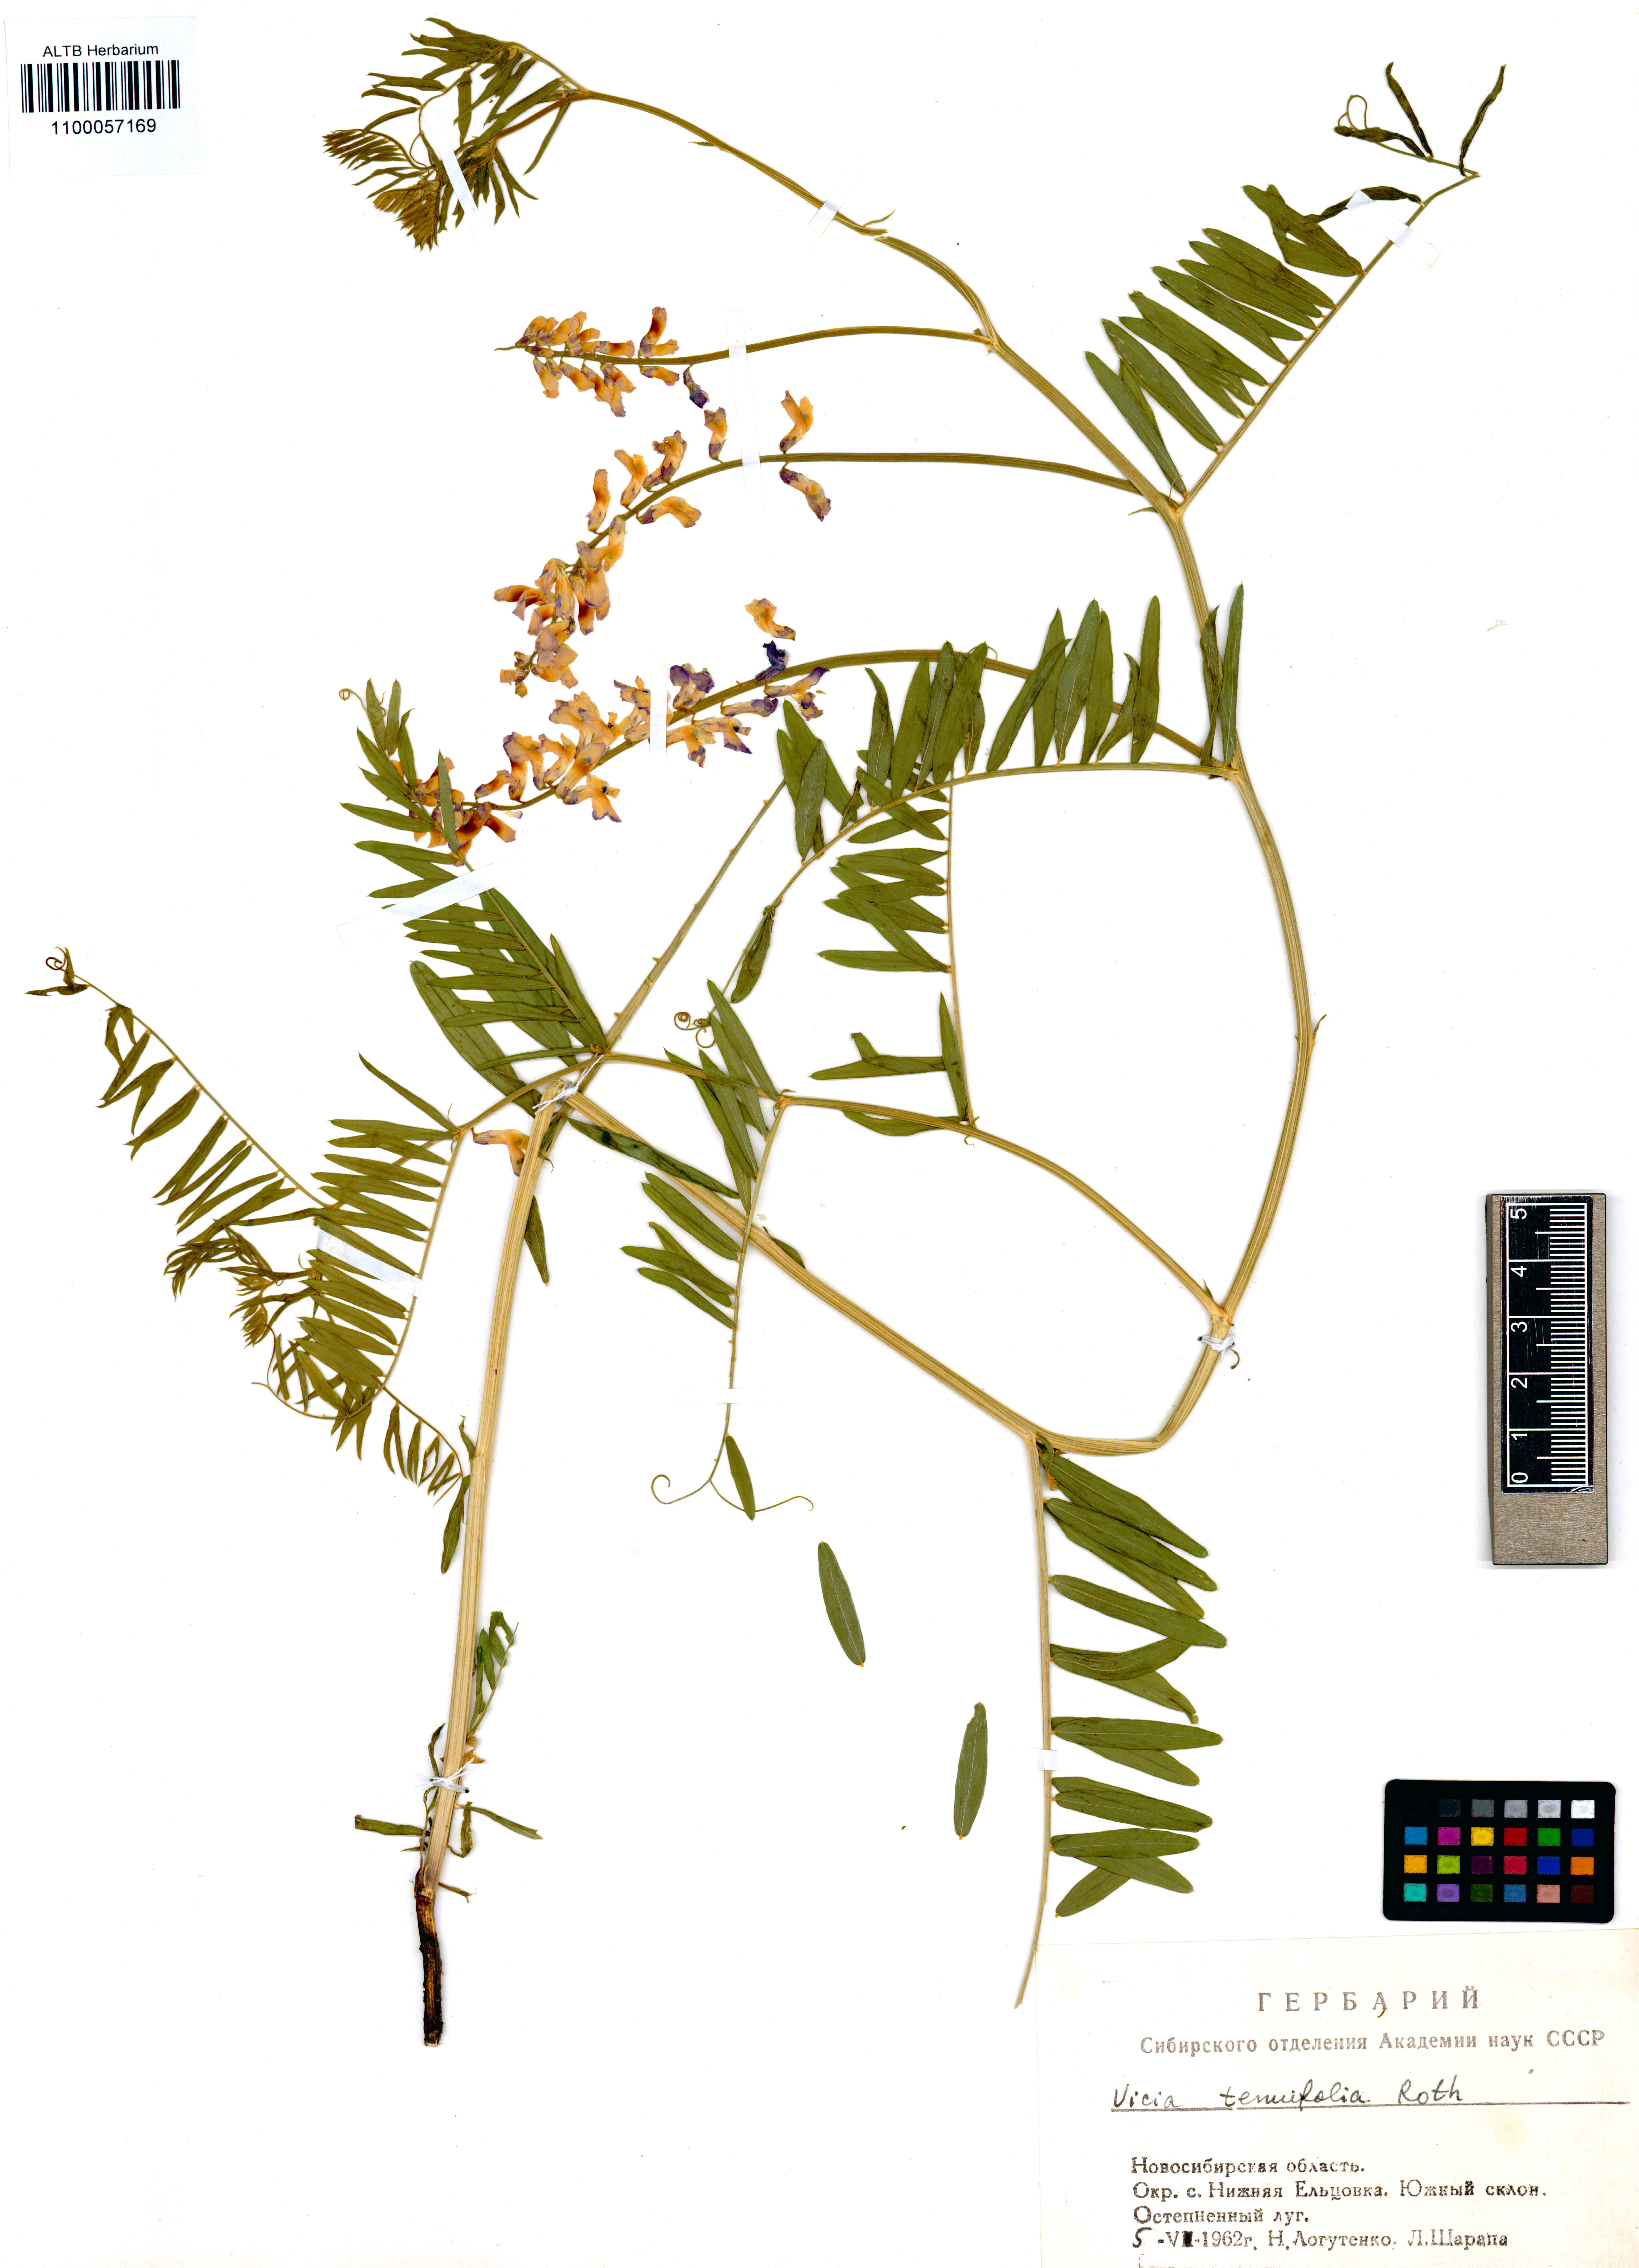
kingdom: Plantae
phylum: Tracheophyta
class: Magnoliopsida
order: Fabales
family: Fabaceae
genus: Vicia
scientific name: Vicia tenuifolia
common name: Fine-leaved vetch
